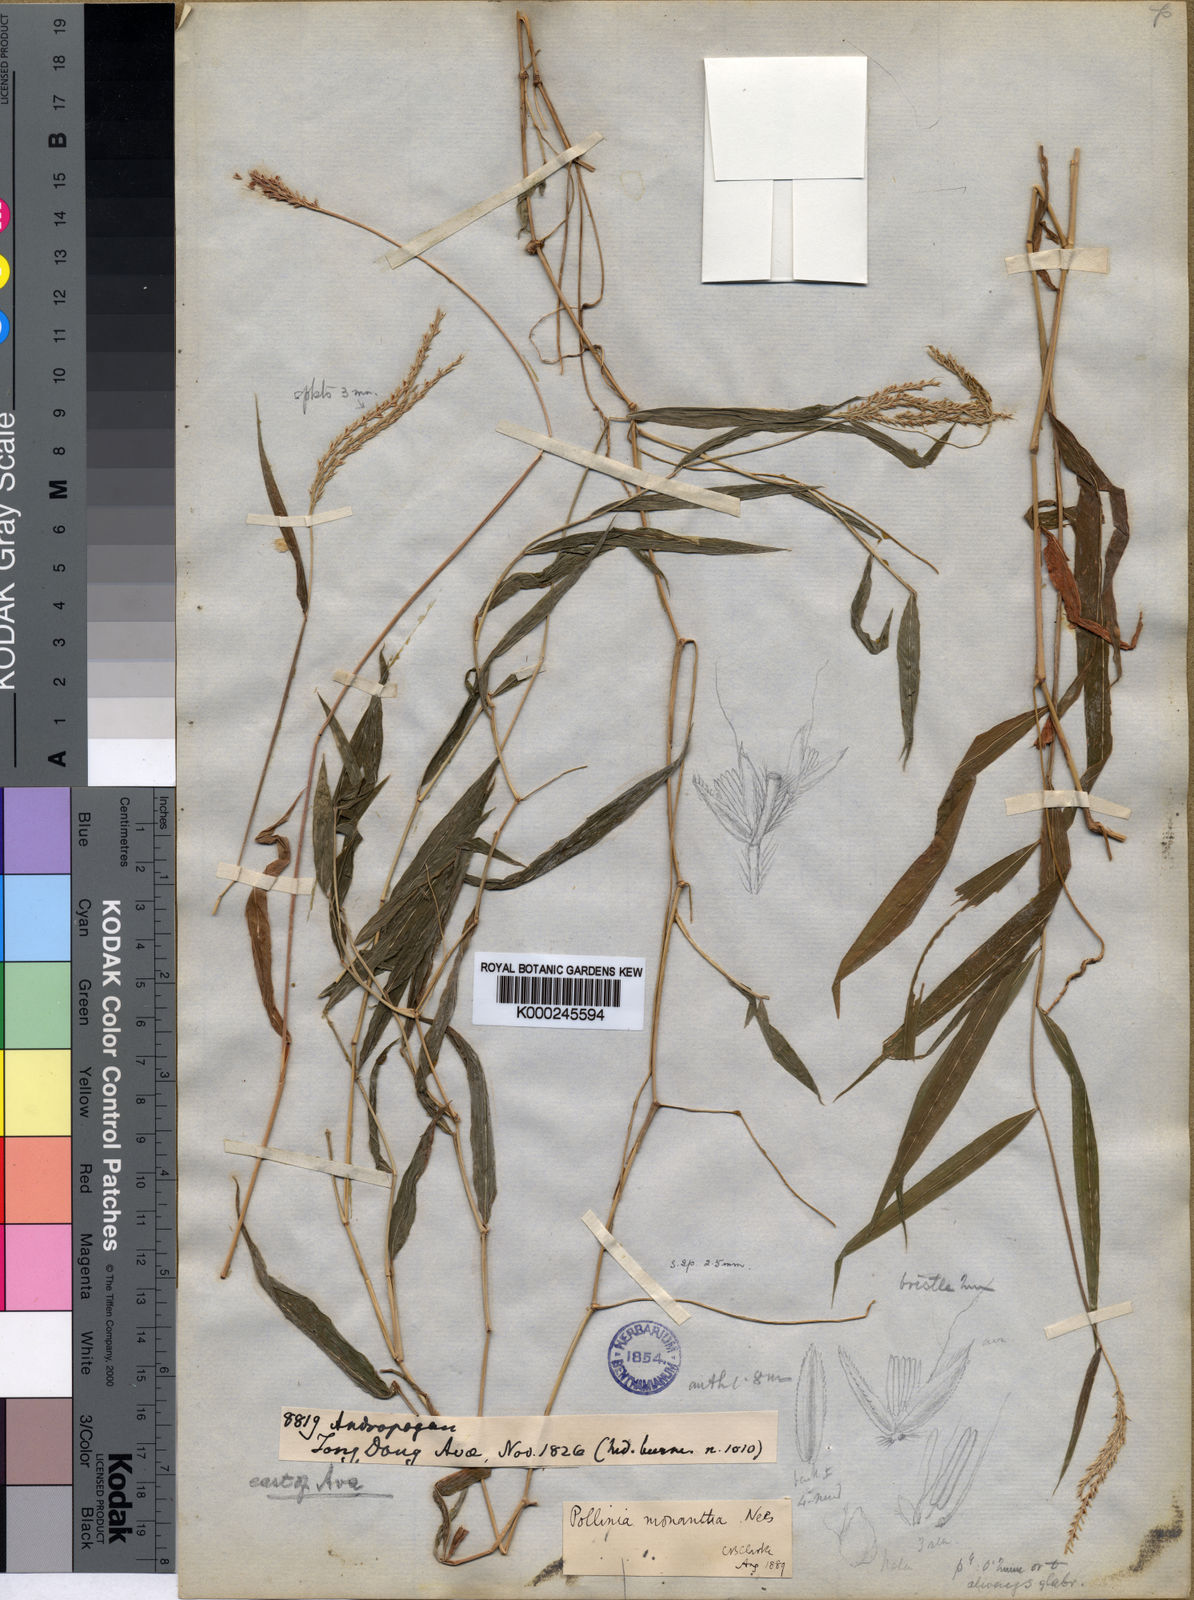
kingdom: Plantae
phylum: Tracheophyta
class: Liliopsida
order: Poales
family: Poaceae
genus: Microstegium
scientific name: Microstegium fasciculatum
